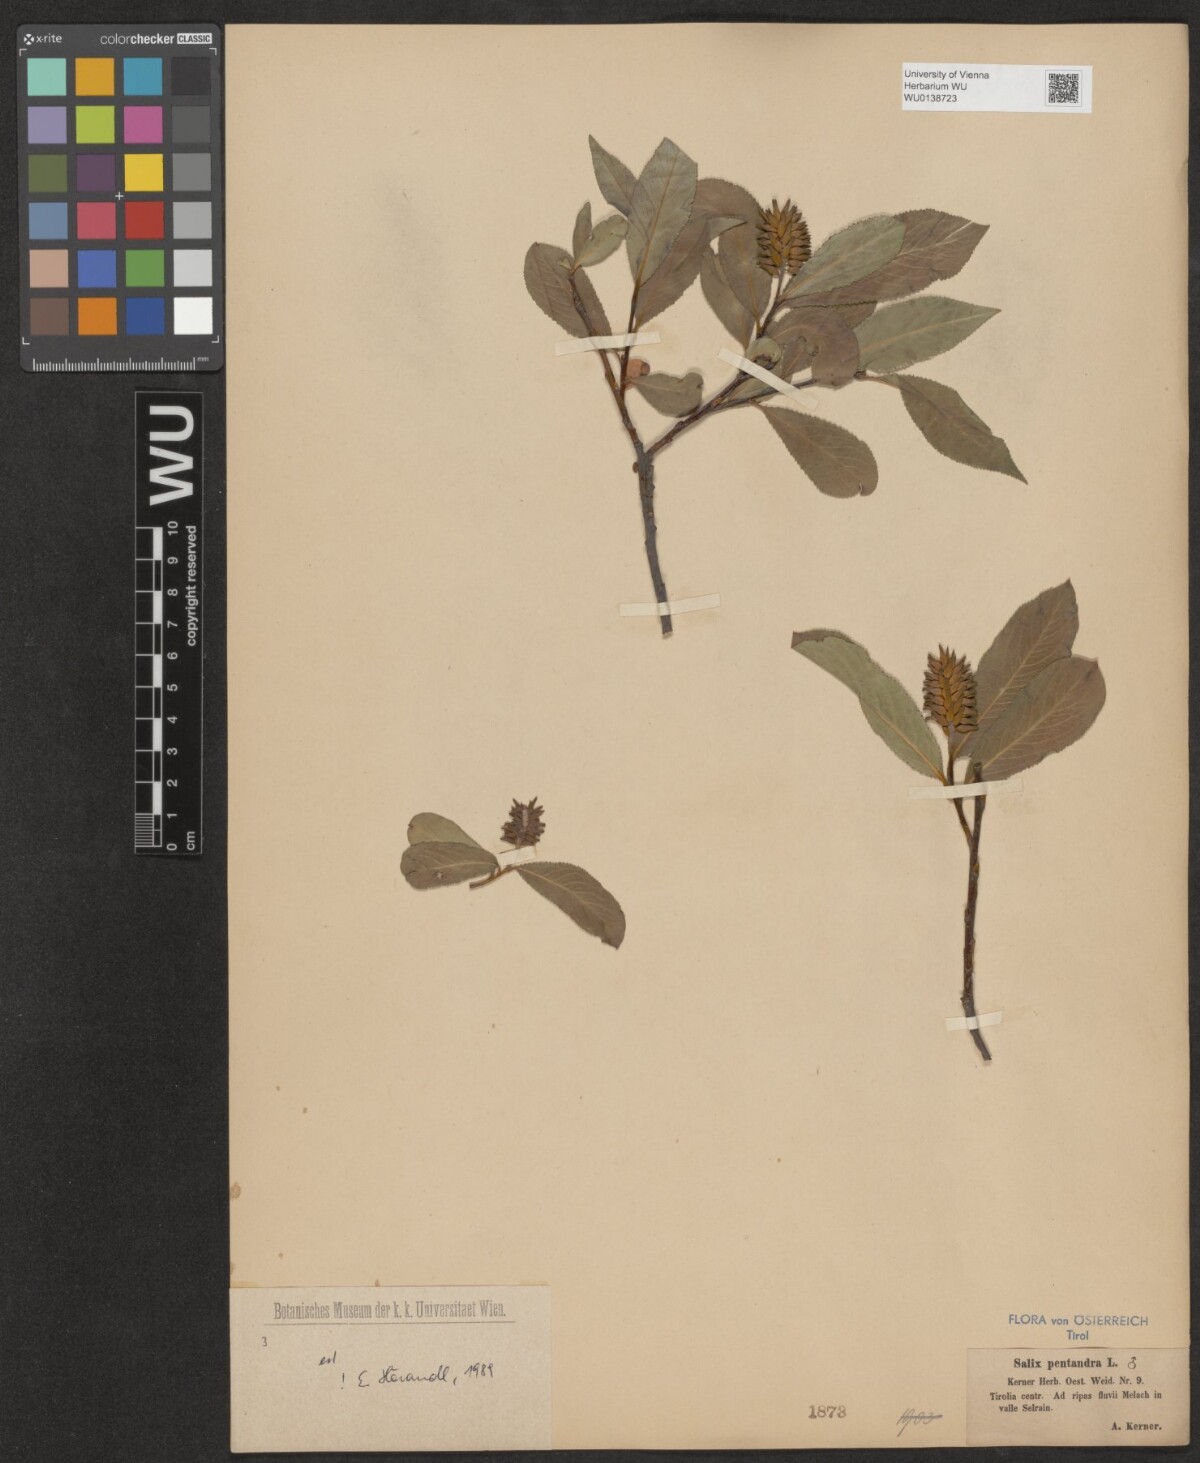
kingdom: Plantae
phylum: Tracheophyta
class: Magnoliopsida
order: Malpighiales
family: Salicaceae
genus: Salix
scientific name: Salix pentandra
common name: Bay willow
